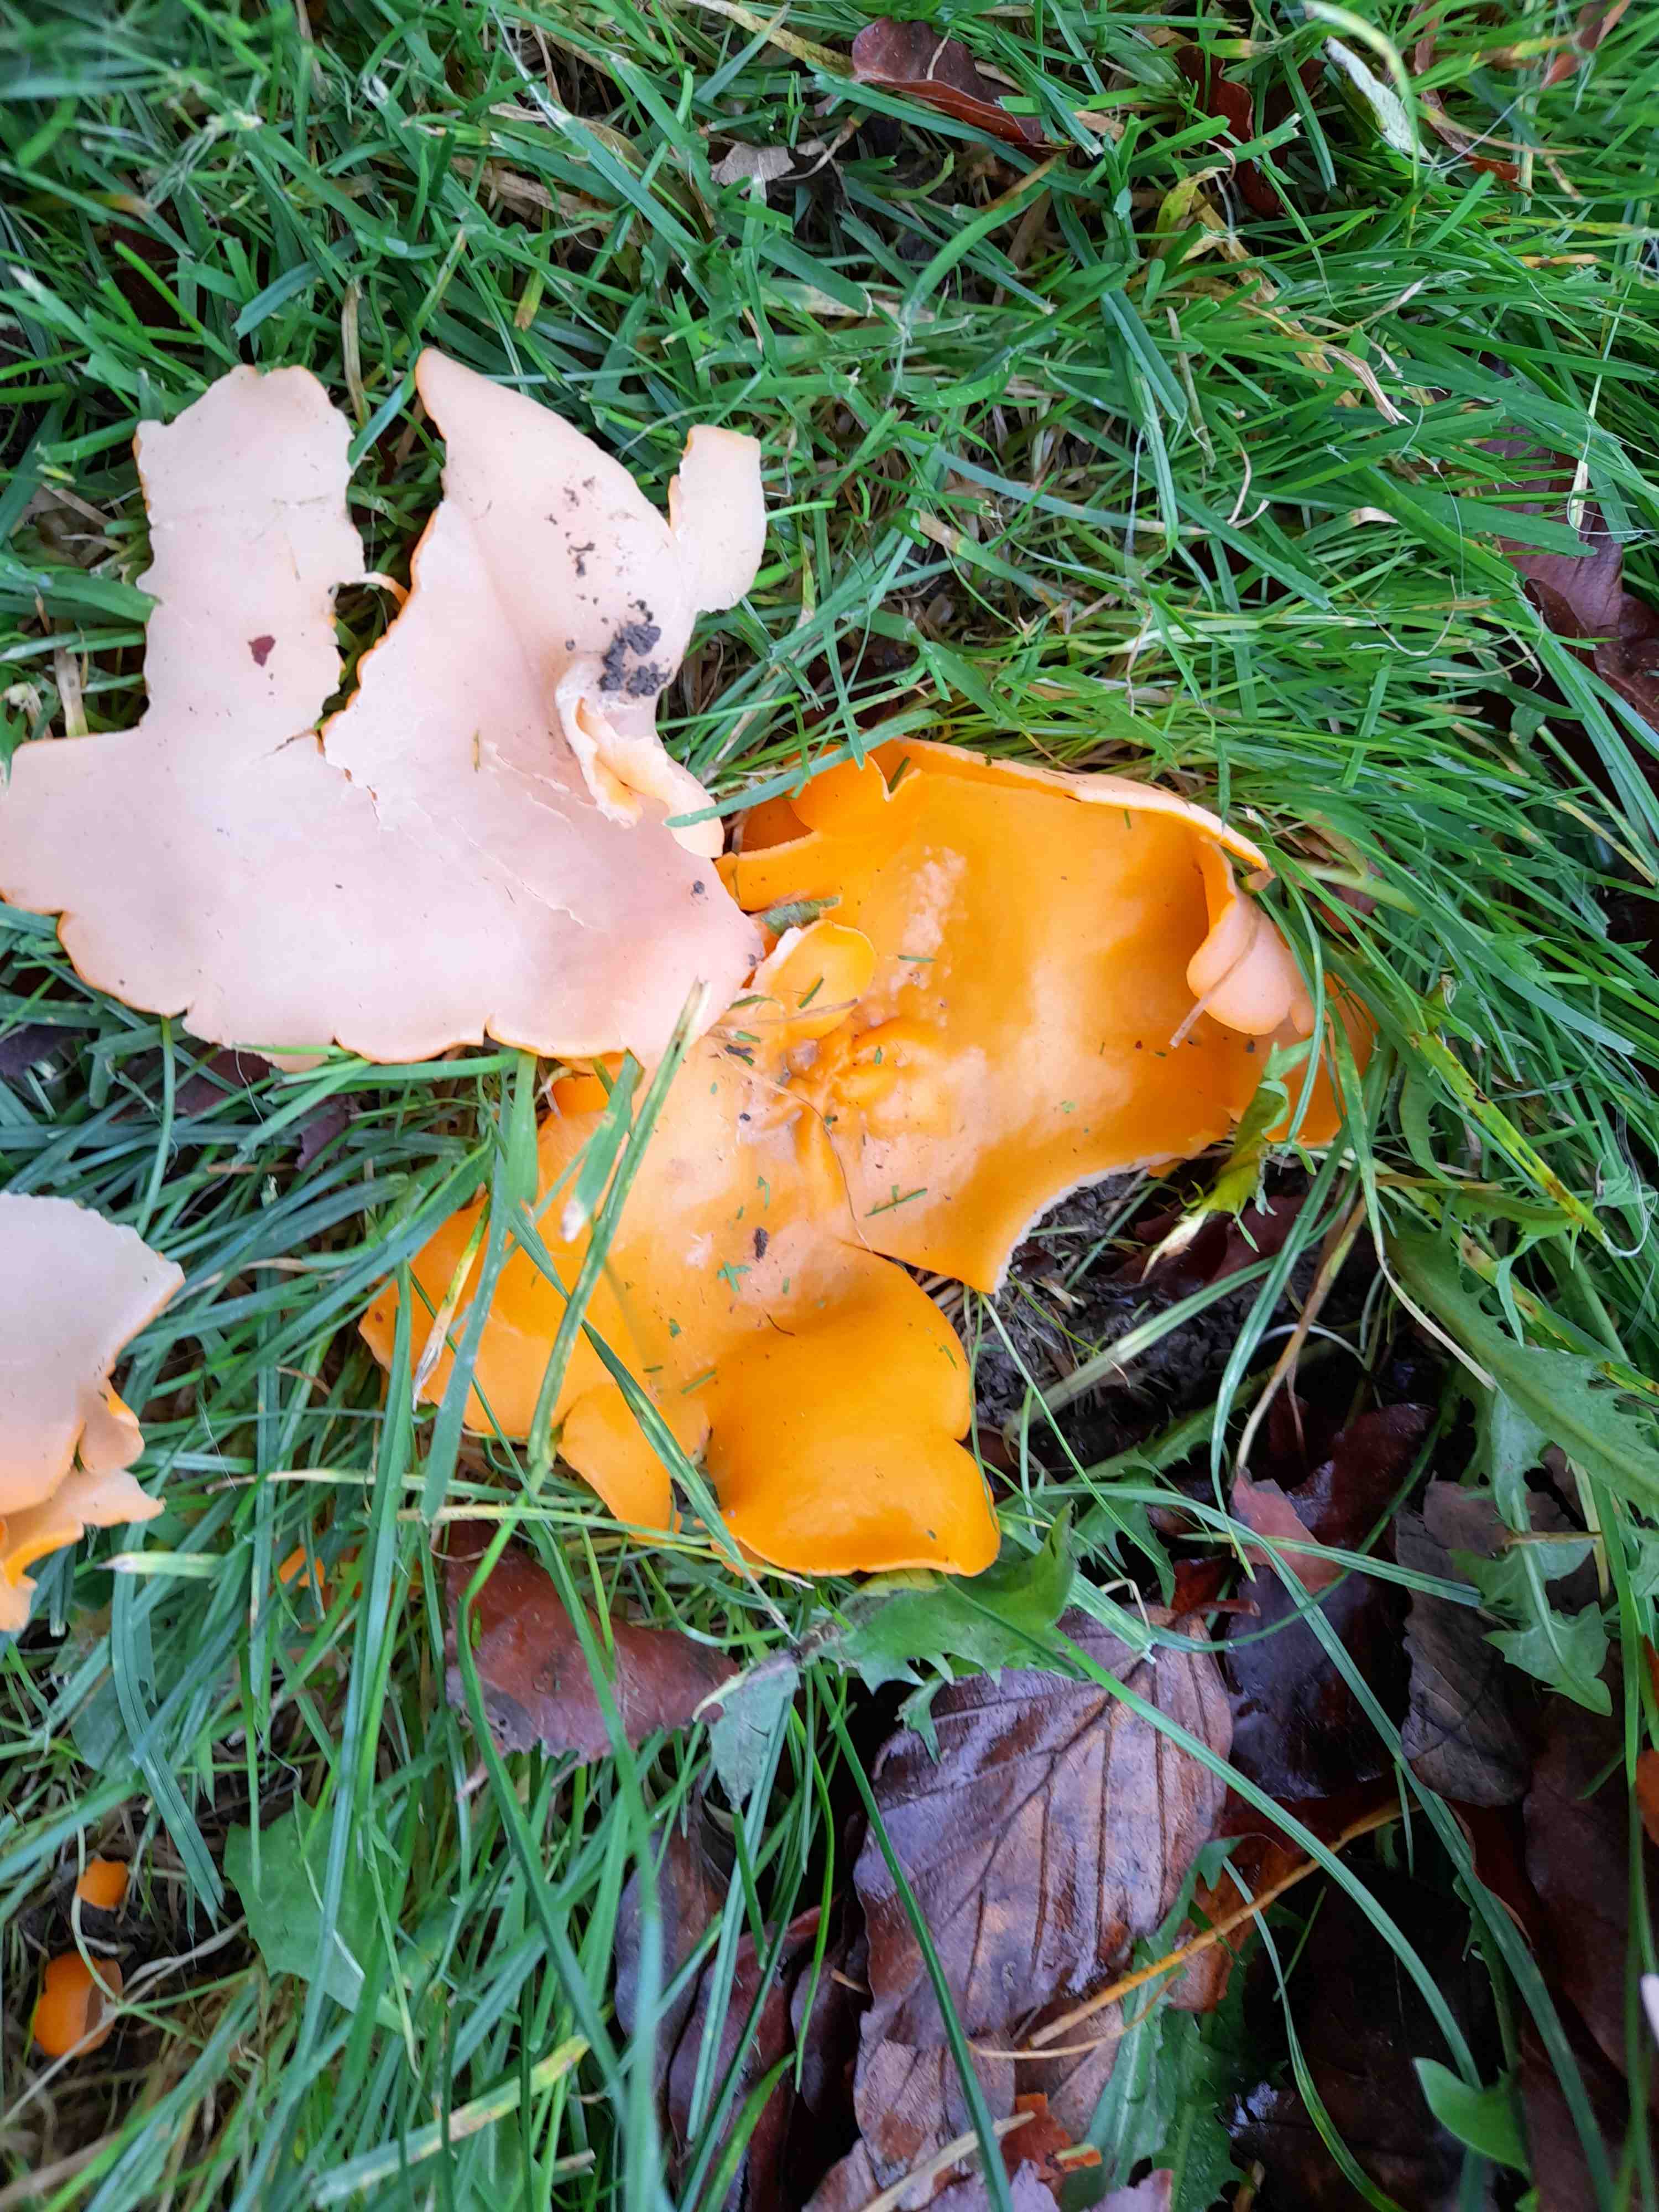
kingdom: Fungi
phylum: Ascomycota
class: Pezizomycetes
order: Pezizales
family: Pyronemataceae
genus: Aleuria
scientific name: Aleuria aurantia
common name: almindelig orangebæger
